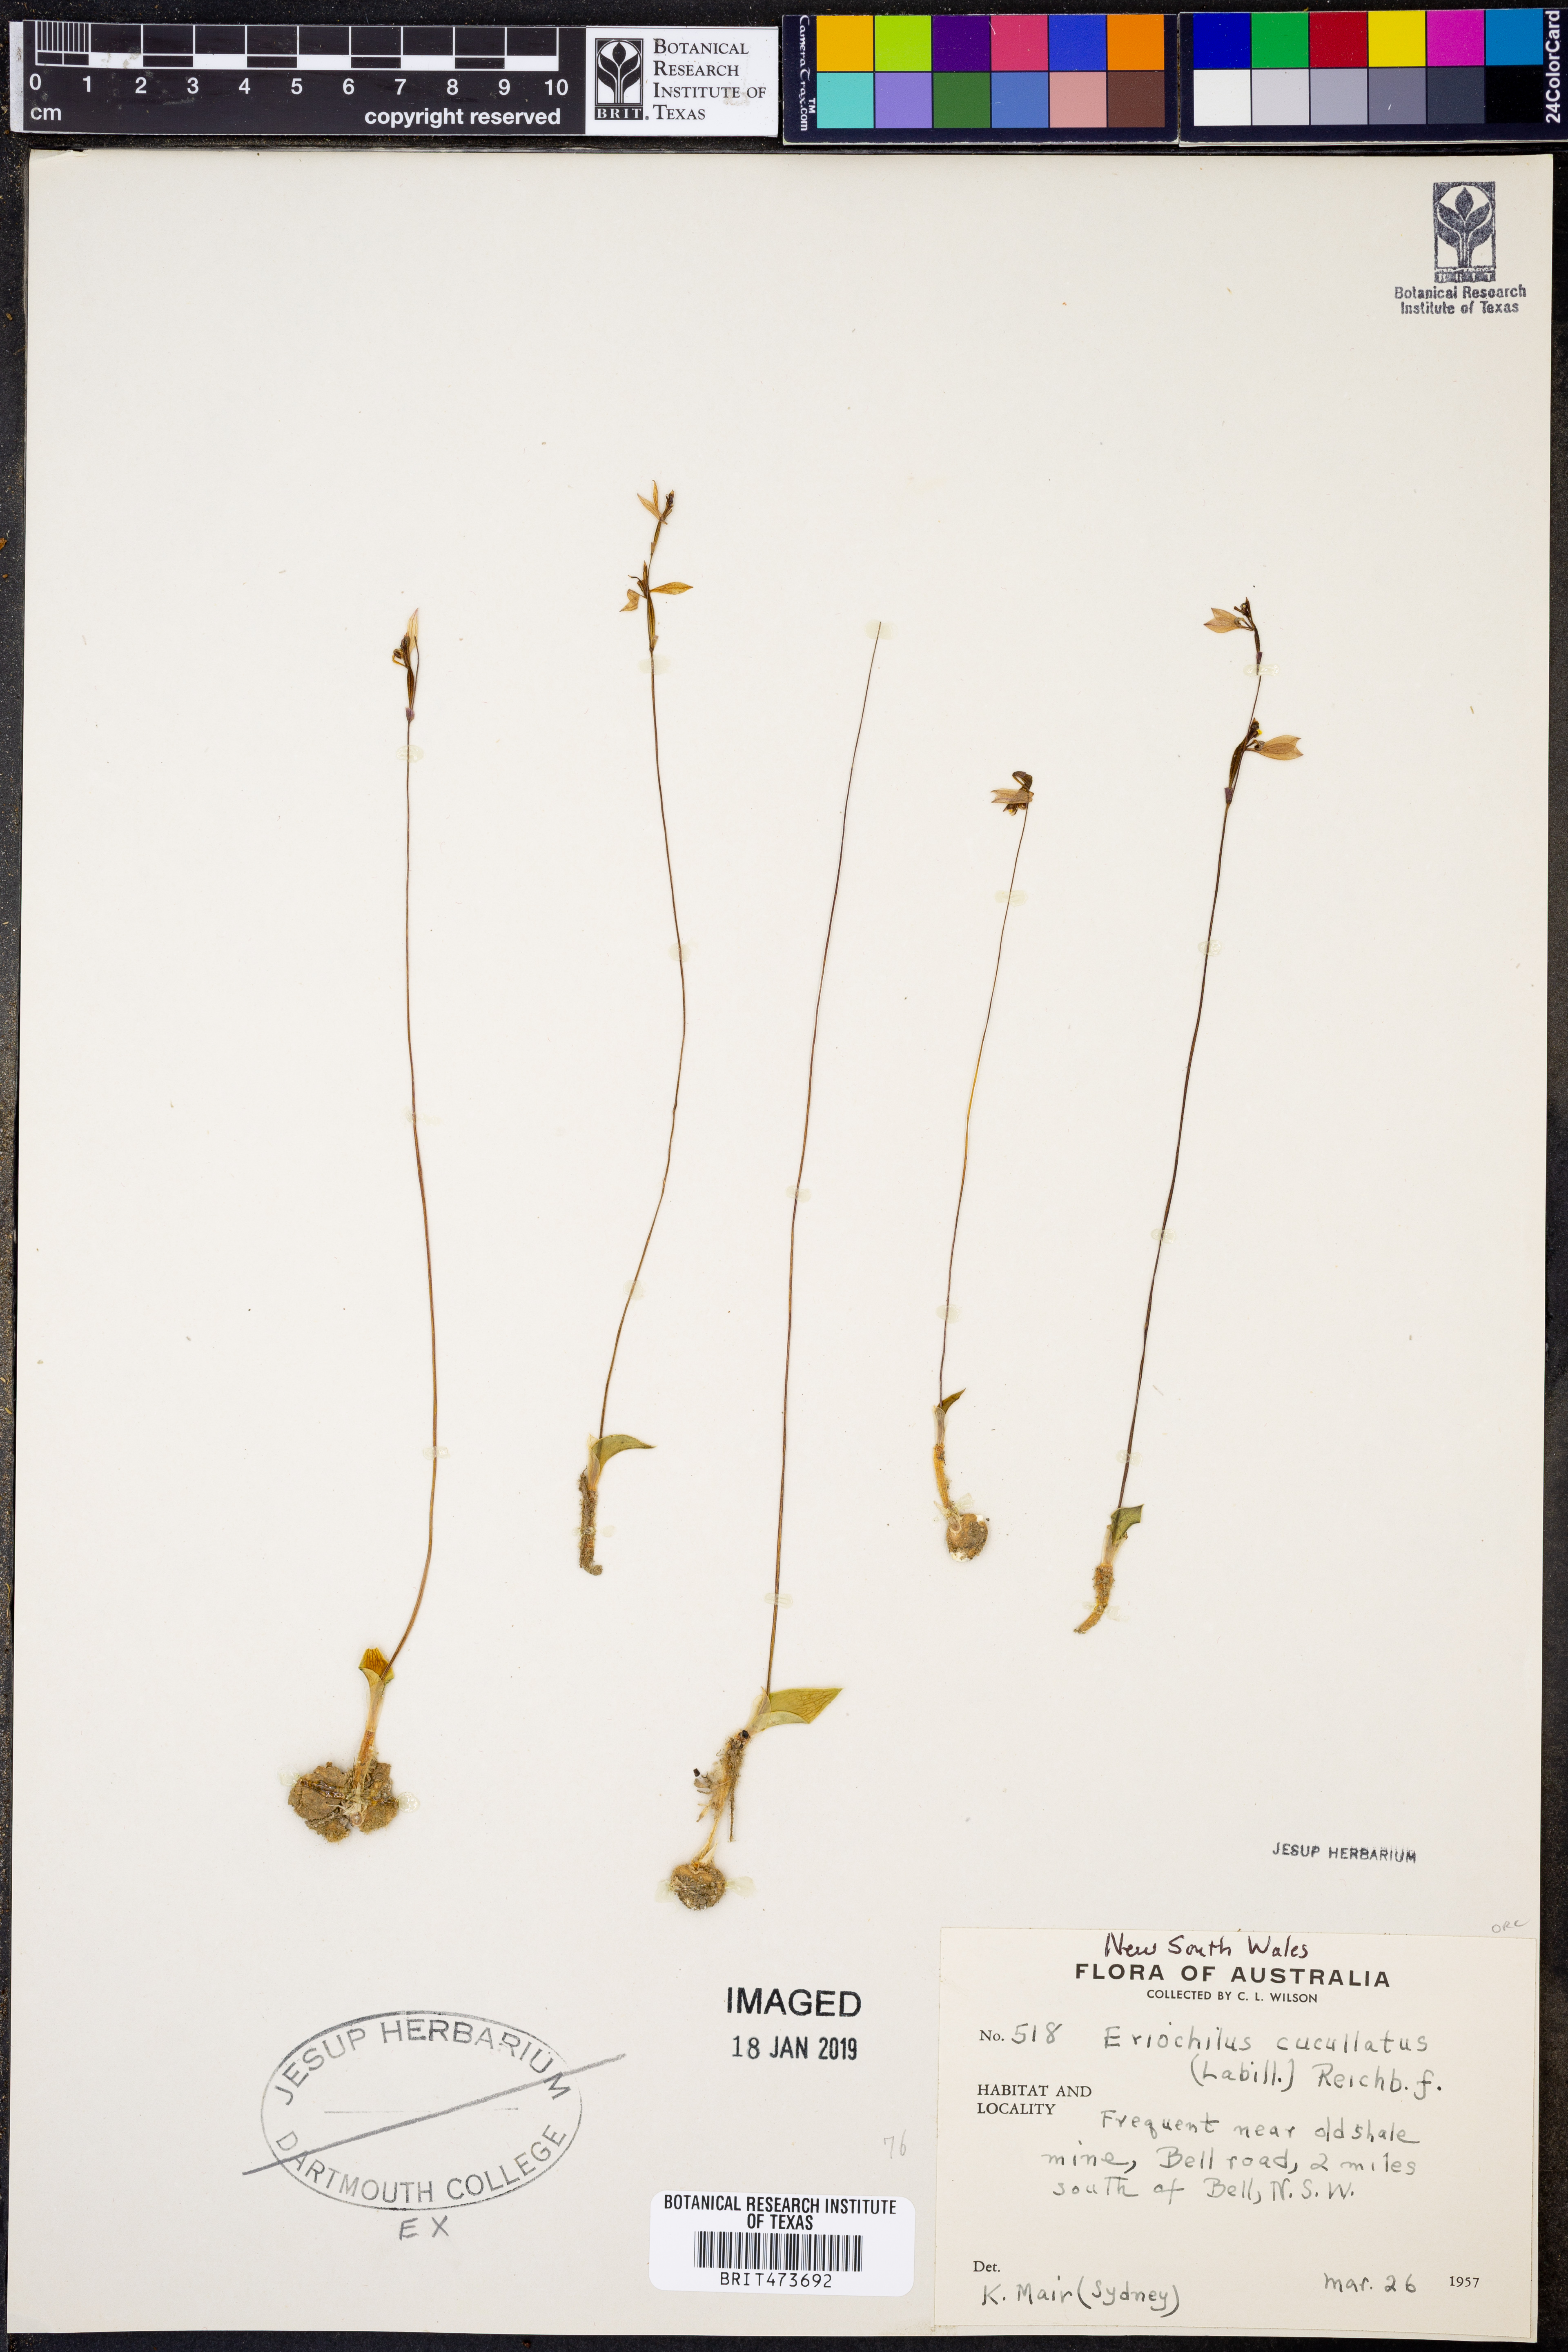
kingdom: Plantae
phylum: Tracheophyta
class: Liliopsida
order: Asparagales
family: Orchidaceae
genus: Eriochilus
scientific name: Eriochilus cucullatus
